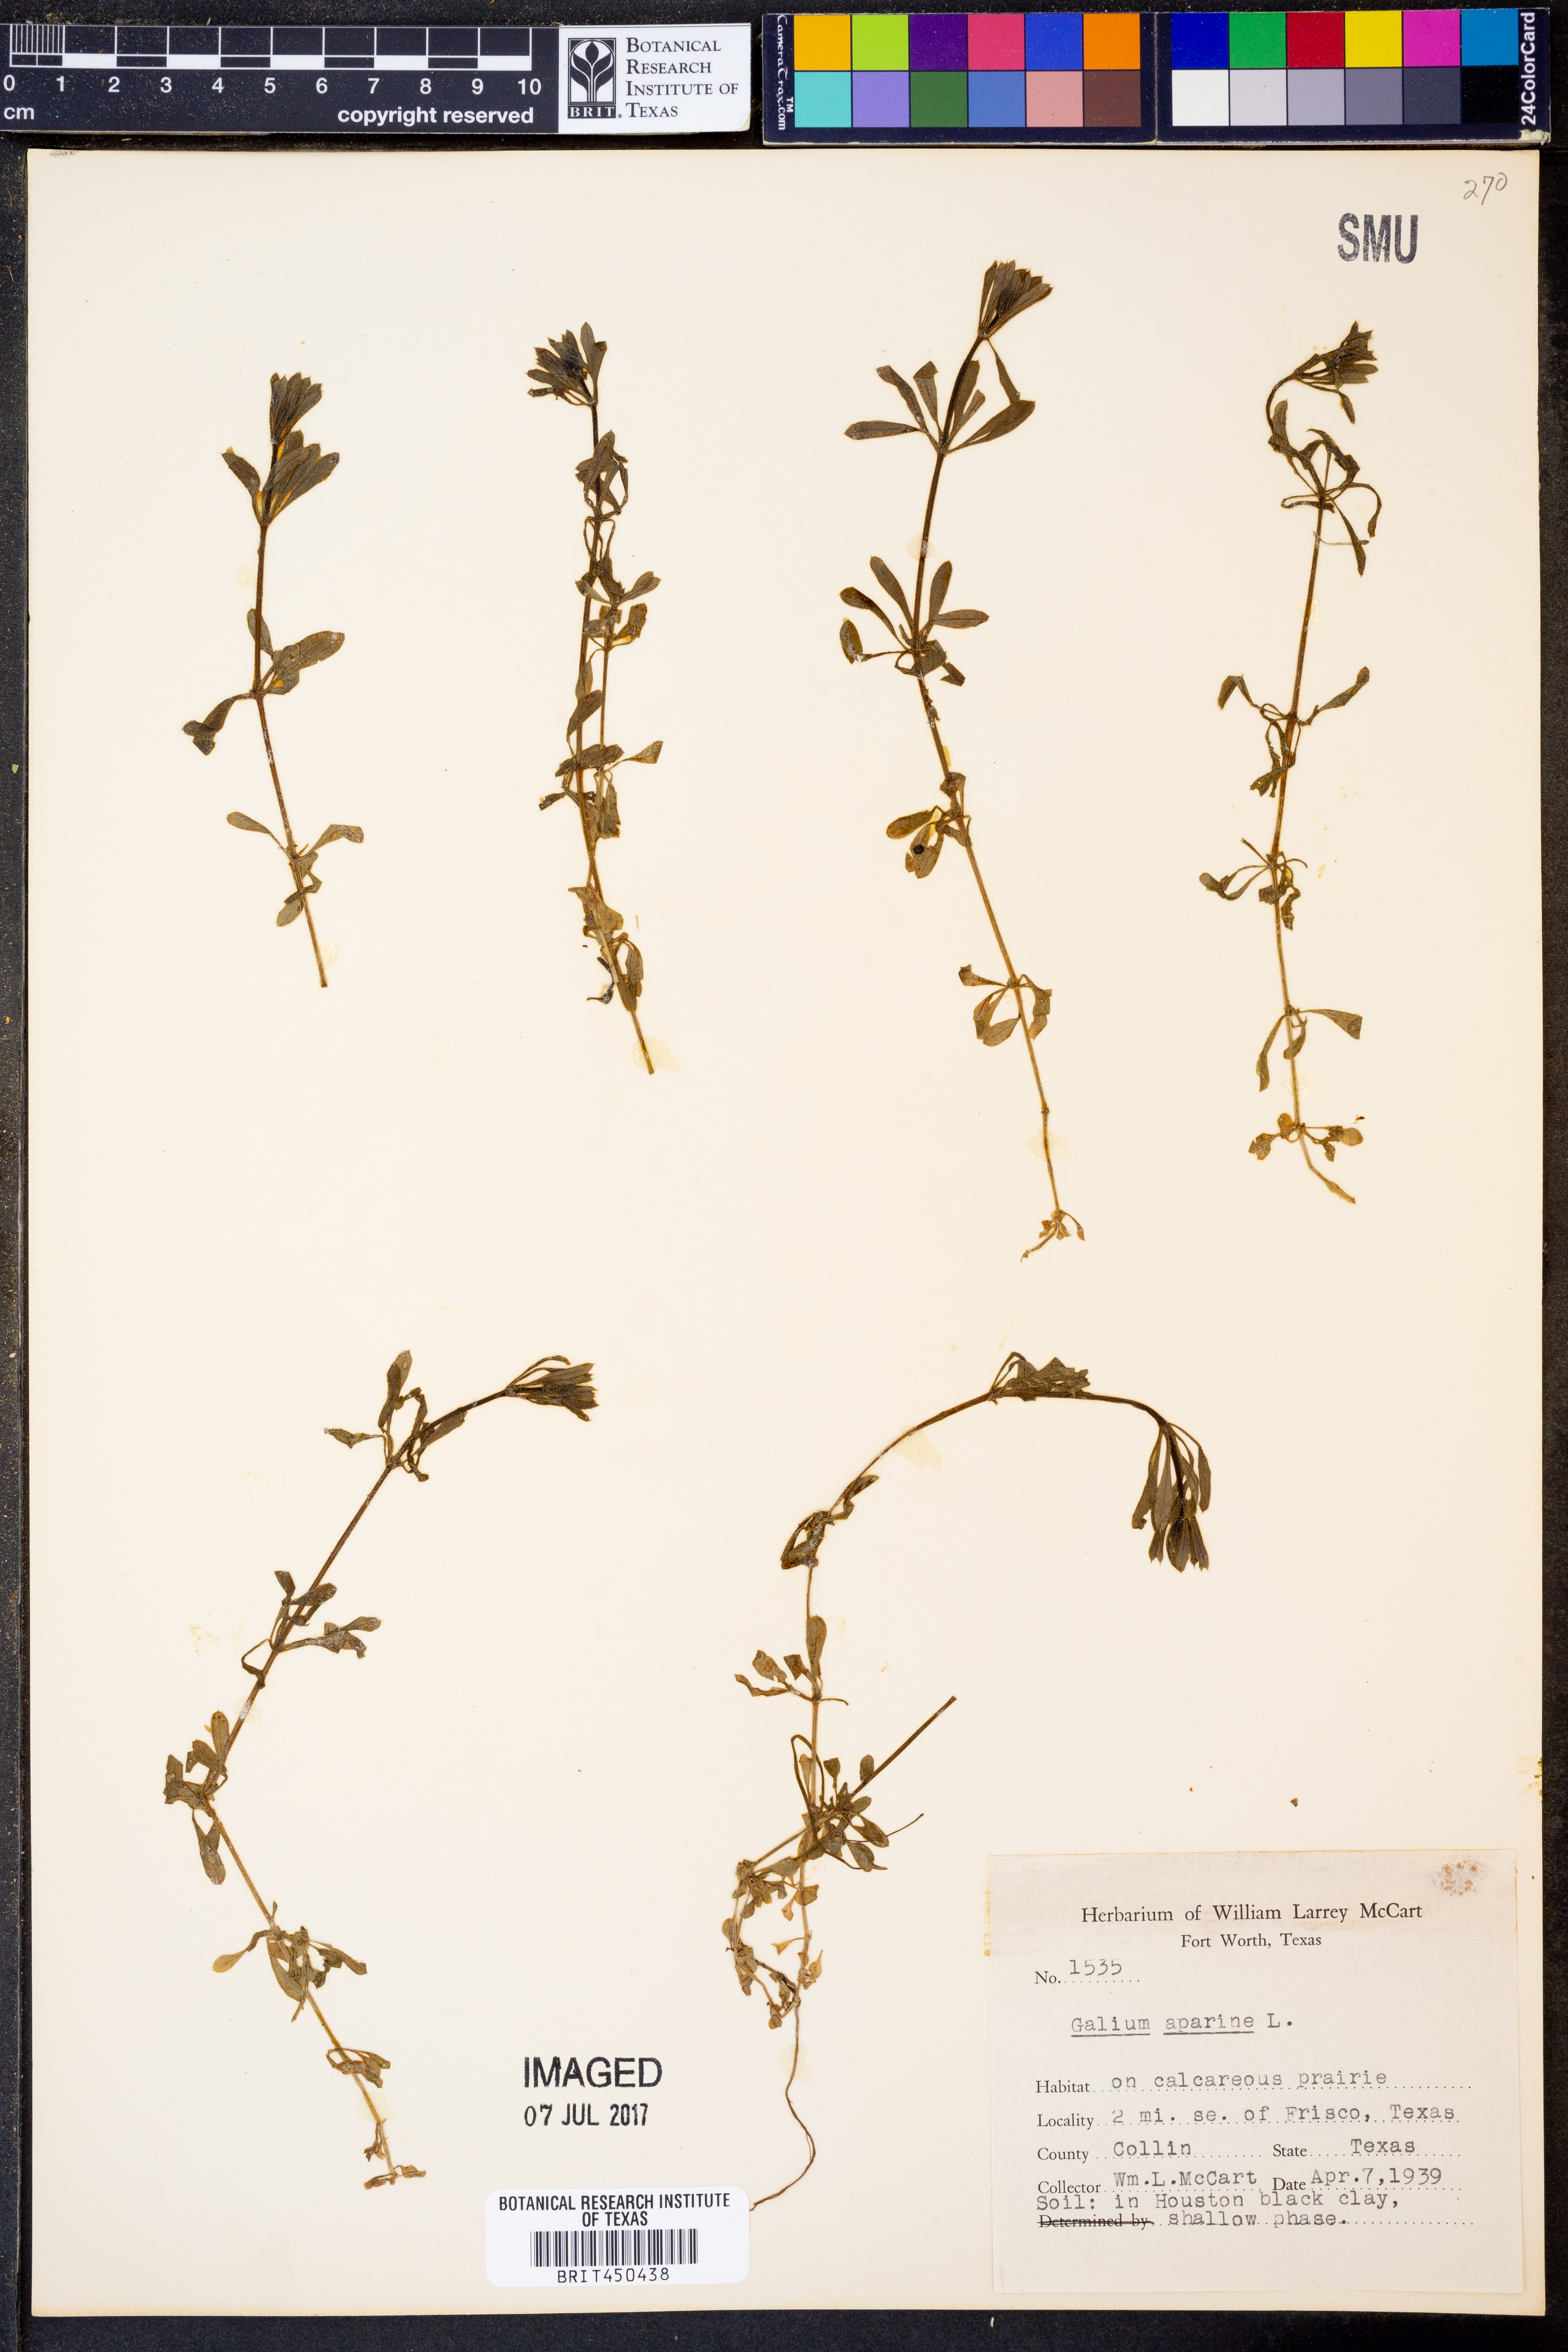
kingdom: Plantae
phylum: Tracheophyta
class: Magnoliopsida
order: Gentianales
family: Rubiaceae
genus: Galium
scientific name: Galium aparine
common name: Cleavers
